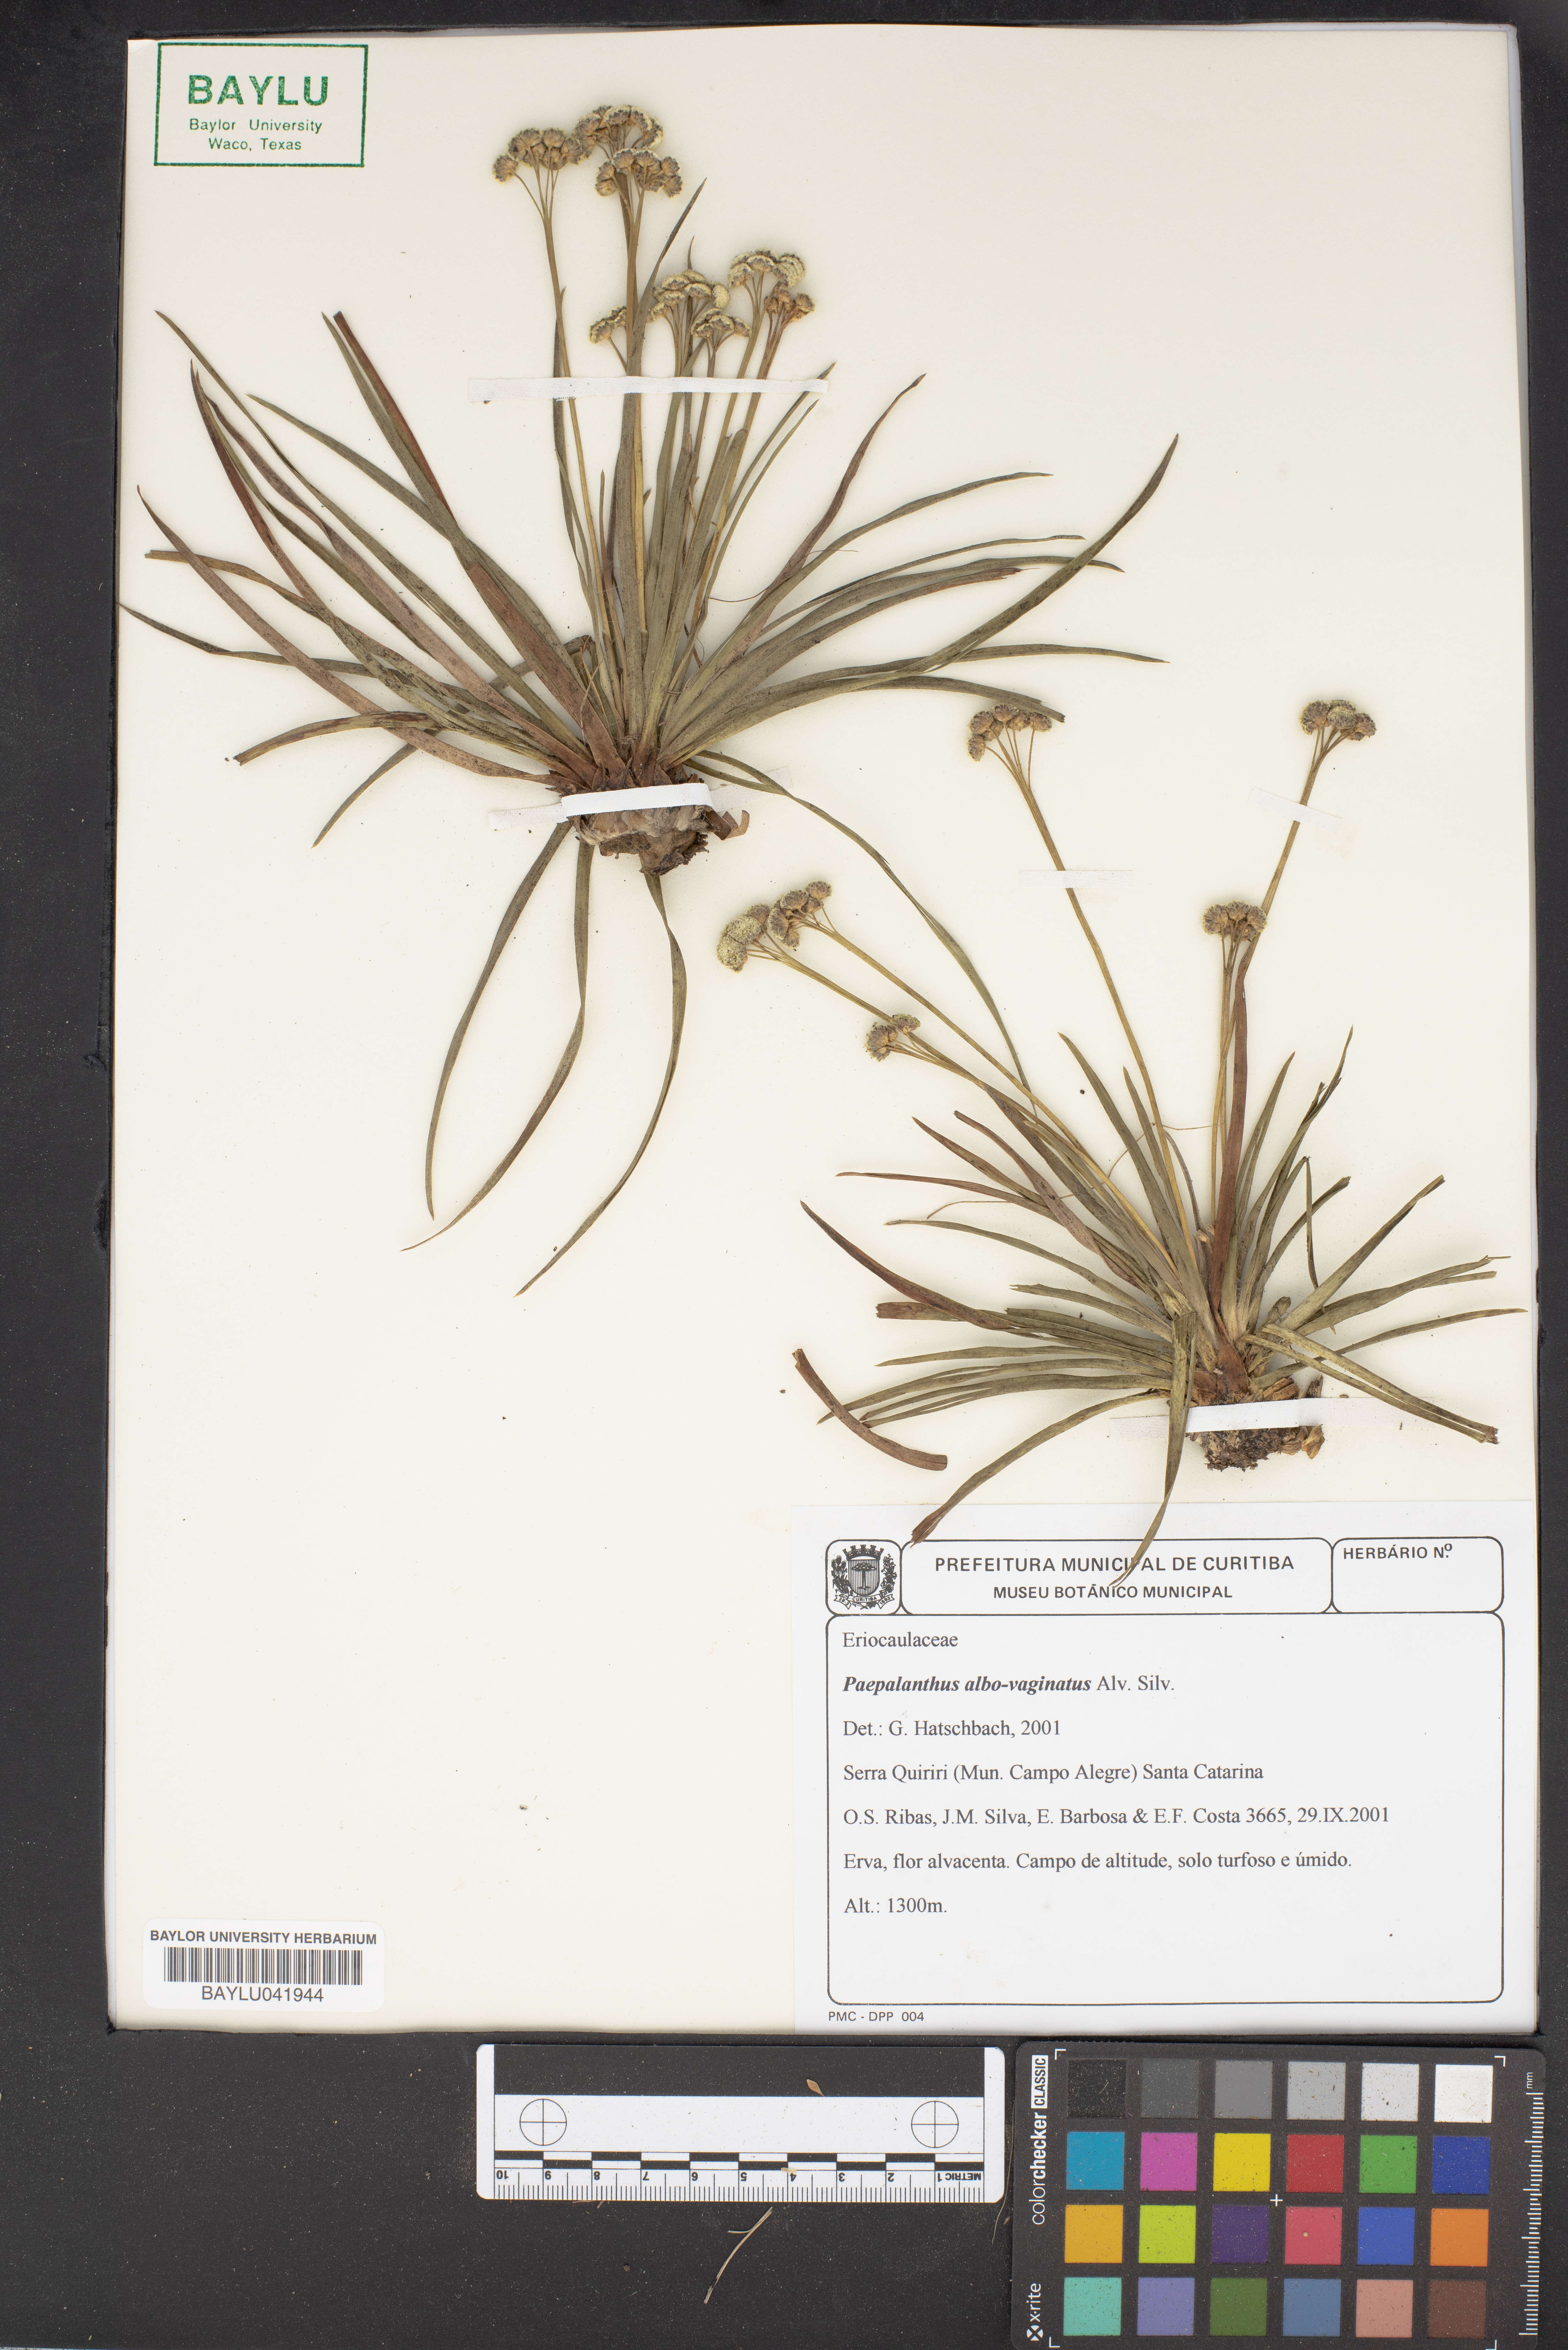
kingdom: Plantae
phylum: Tracheophyta
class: Liliopsida
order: Poales
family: Eriocaulaceae
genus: Paepalanthus
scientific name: Paepalanthus albovaginatus
